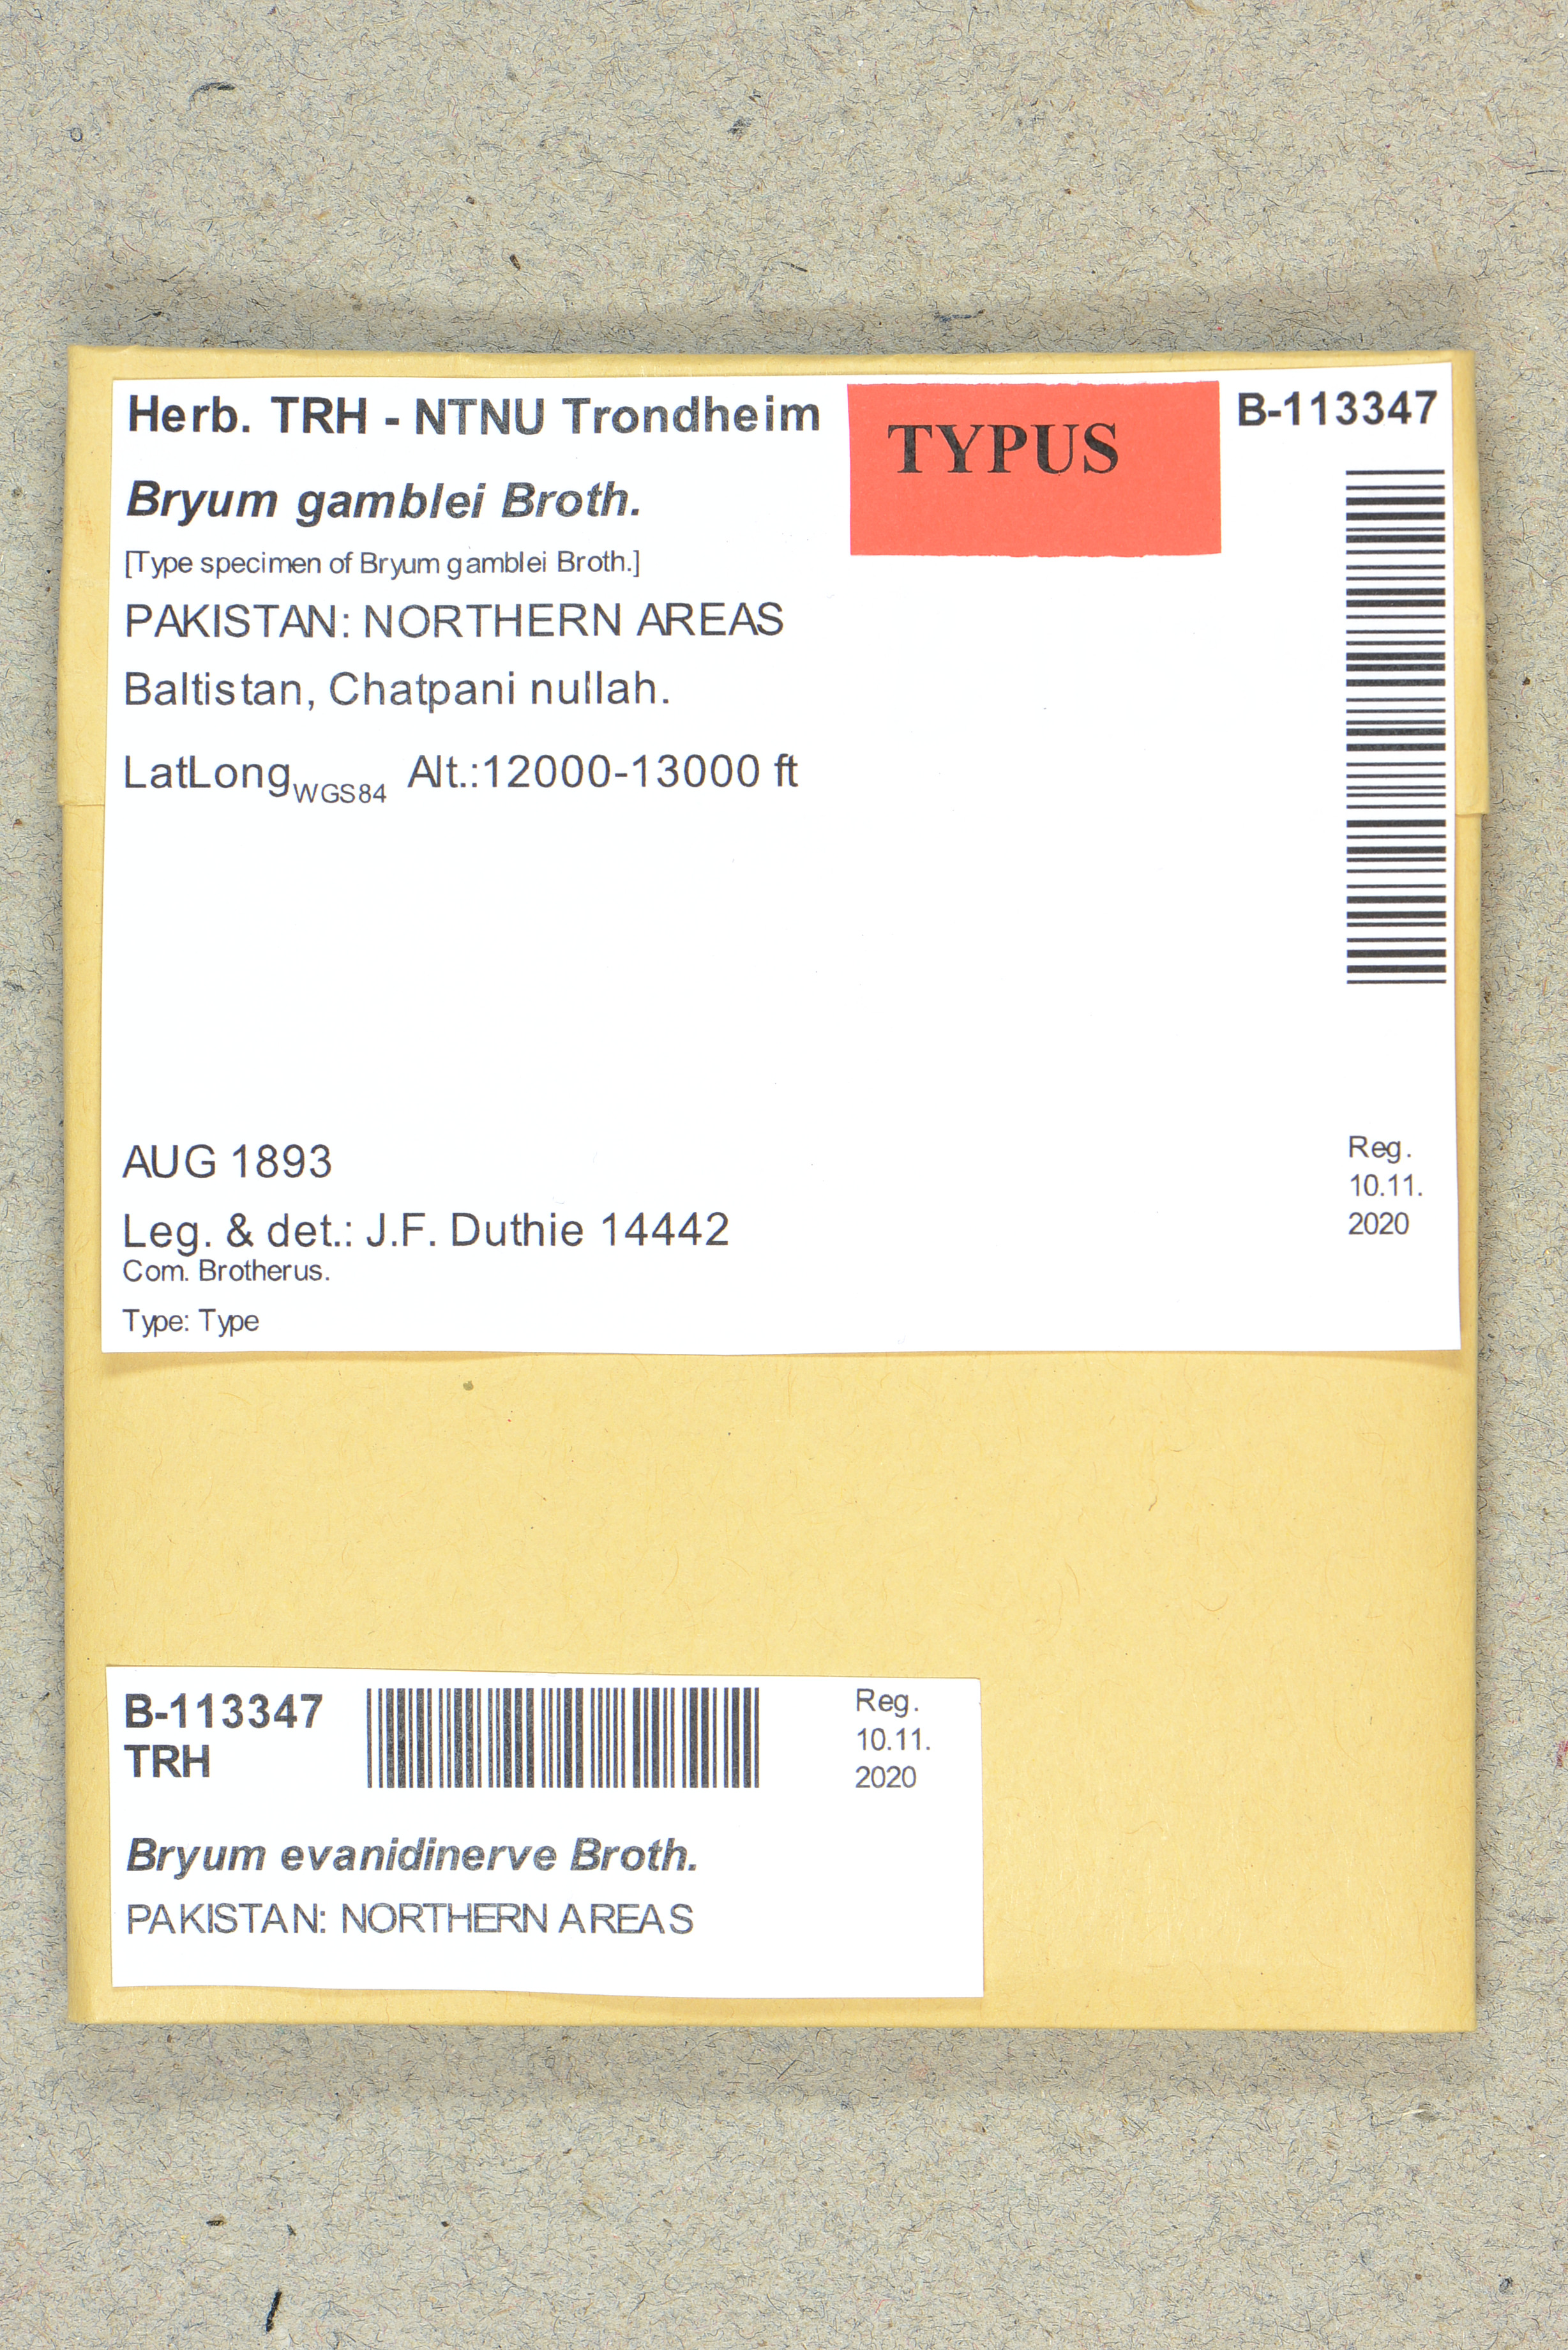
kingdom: Plantae
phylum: Bryophyta
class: Bryopsida
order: Bryales
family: Bryaceae
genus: Bryum
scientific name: Bryum evanidinerve
